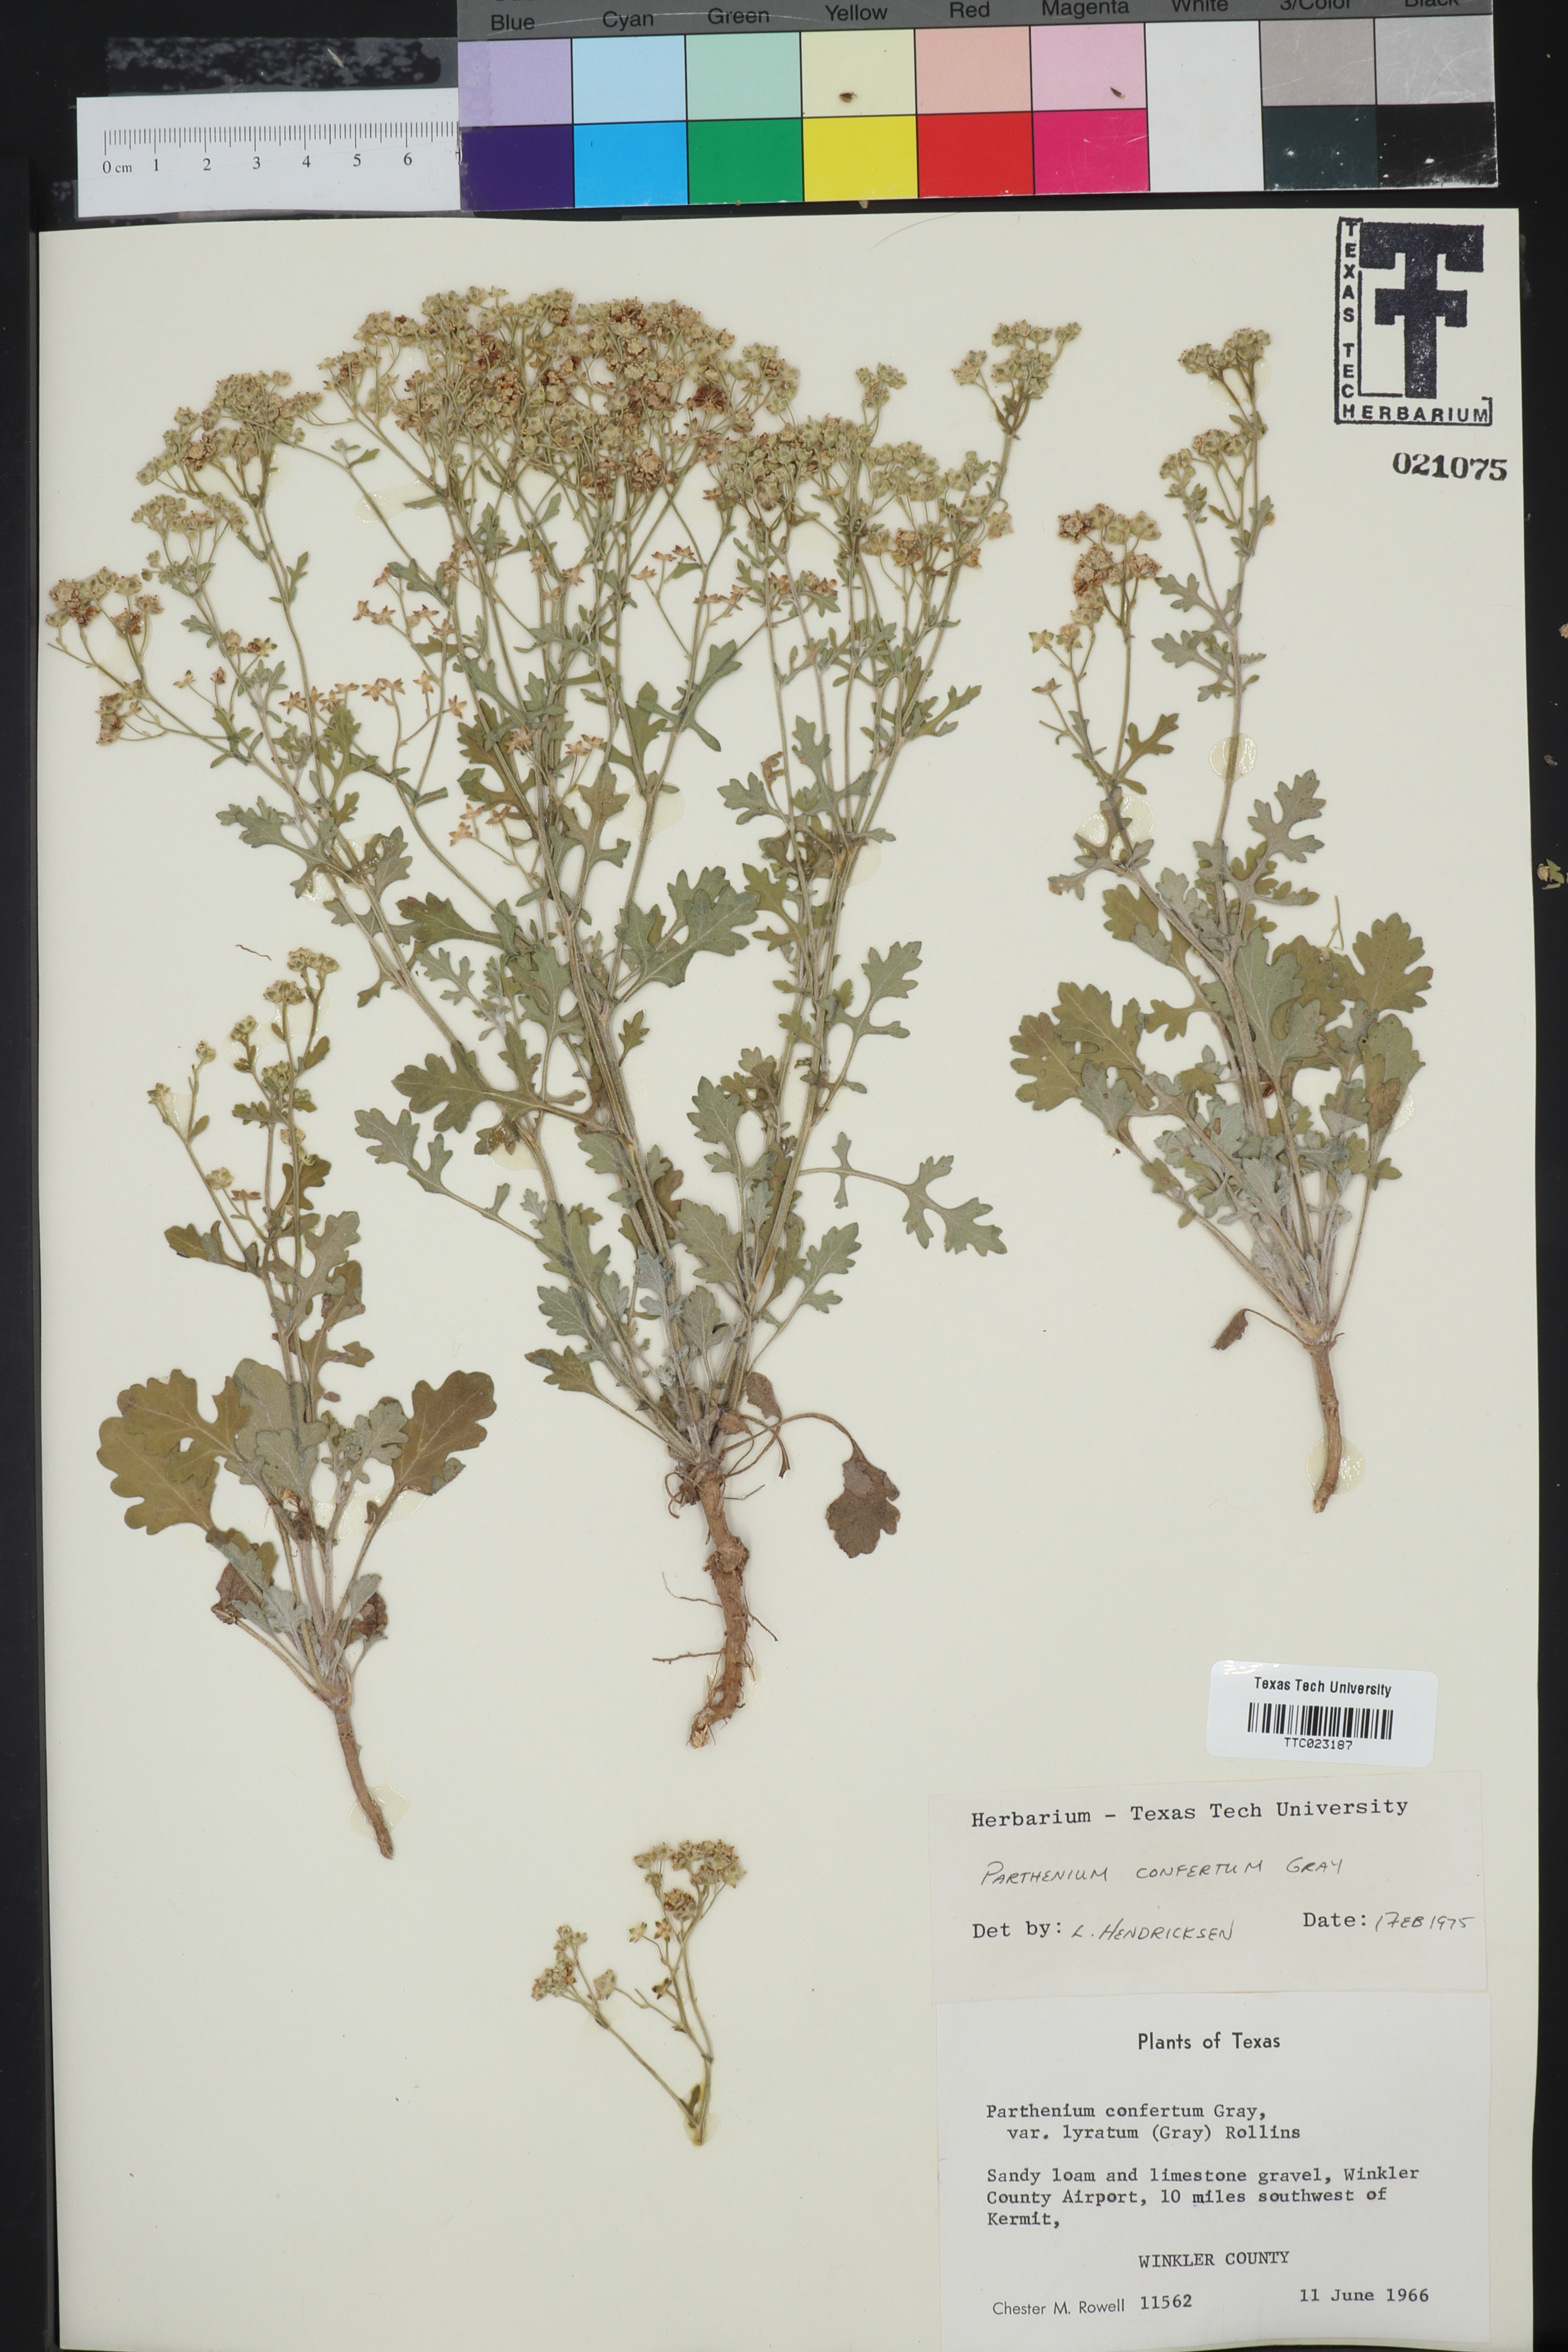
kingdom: Plantae
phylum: Tracheophyta
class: Magnoliopsida
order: Asterales
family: Asteraceae
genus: Parthenium
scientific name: Parthenium confertum
